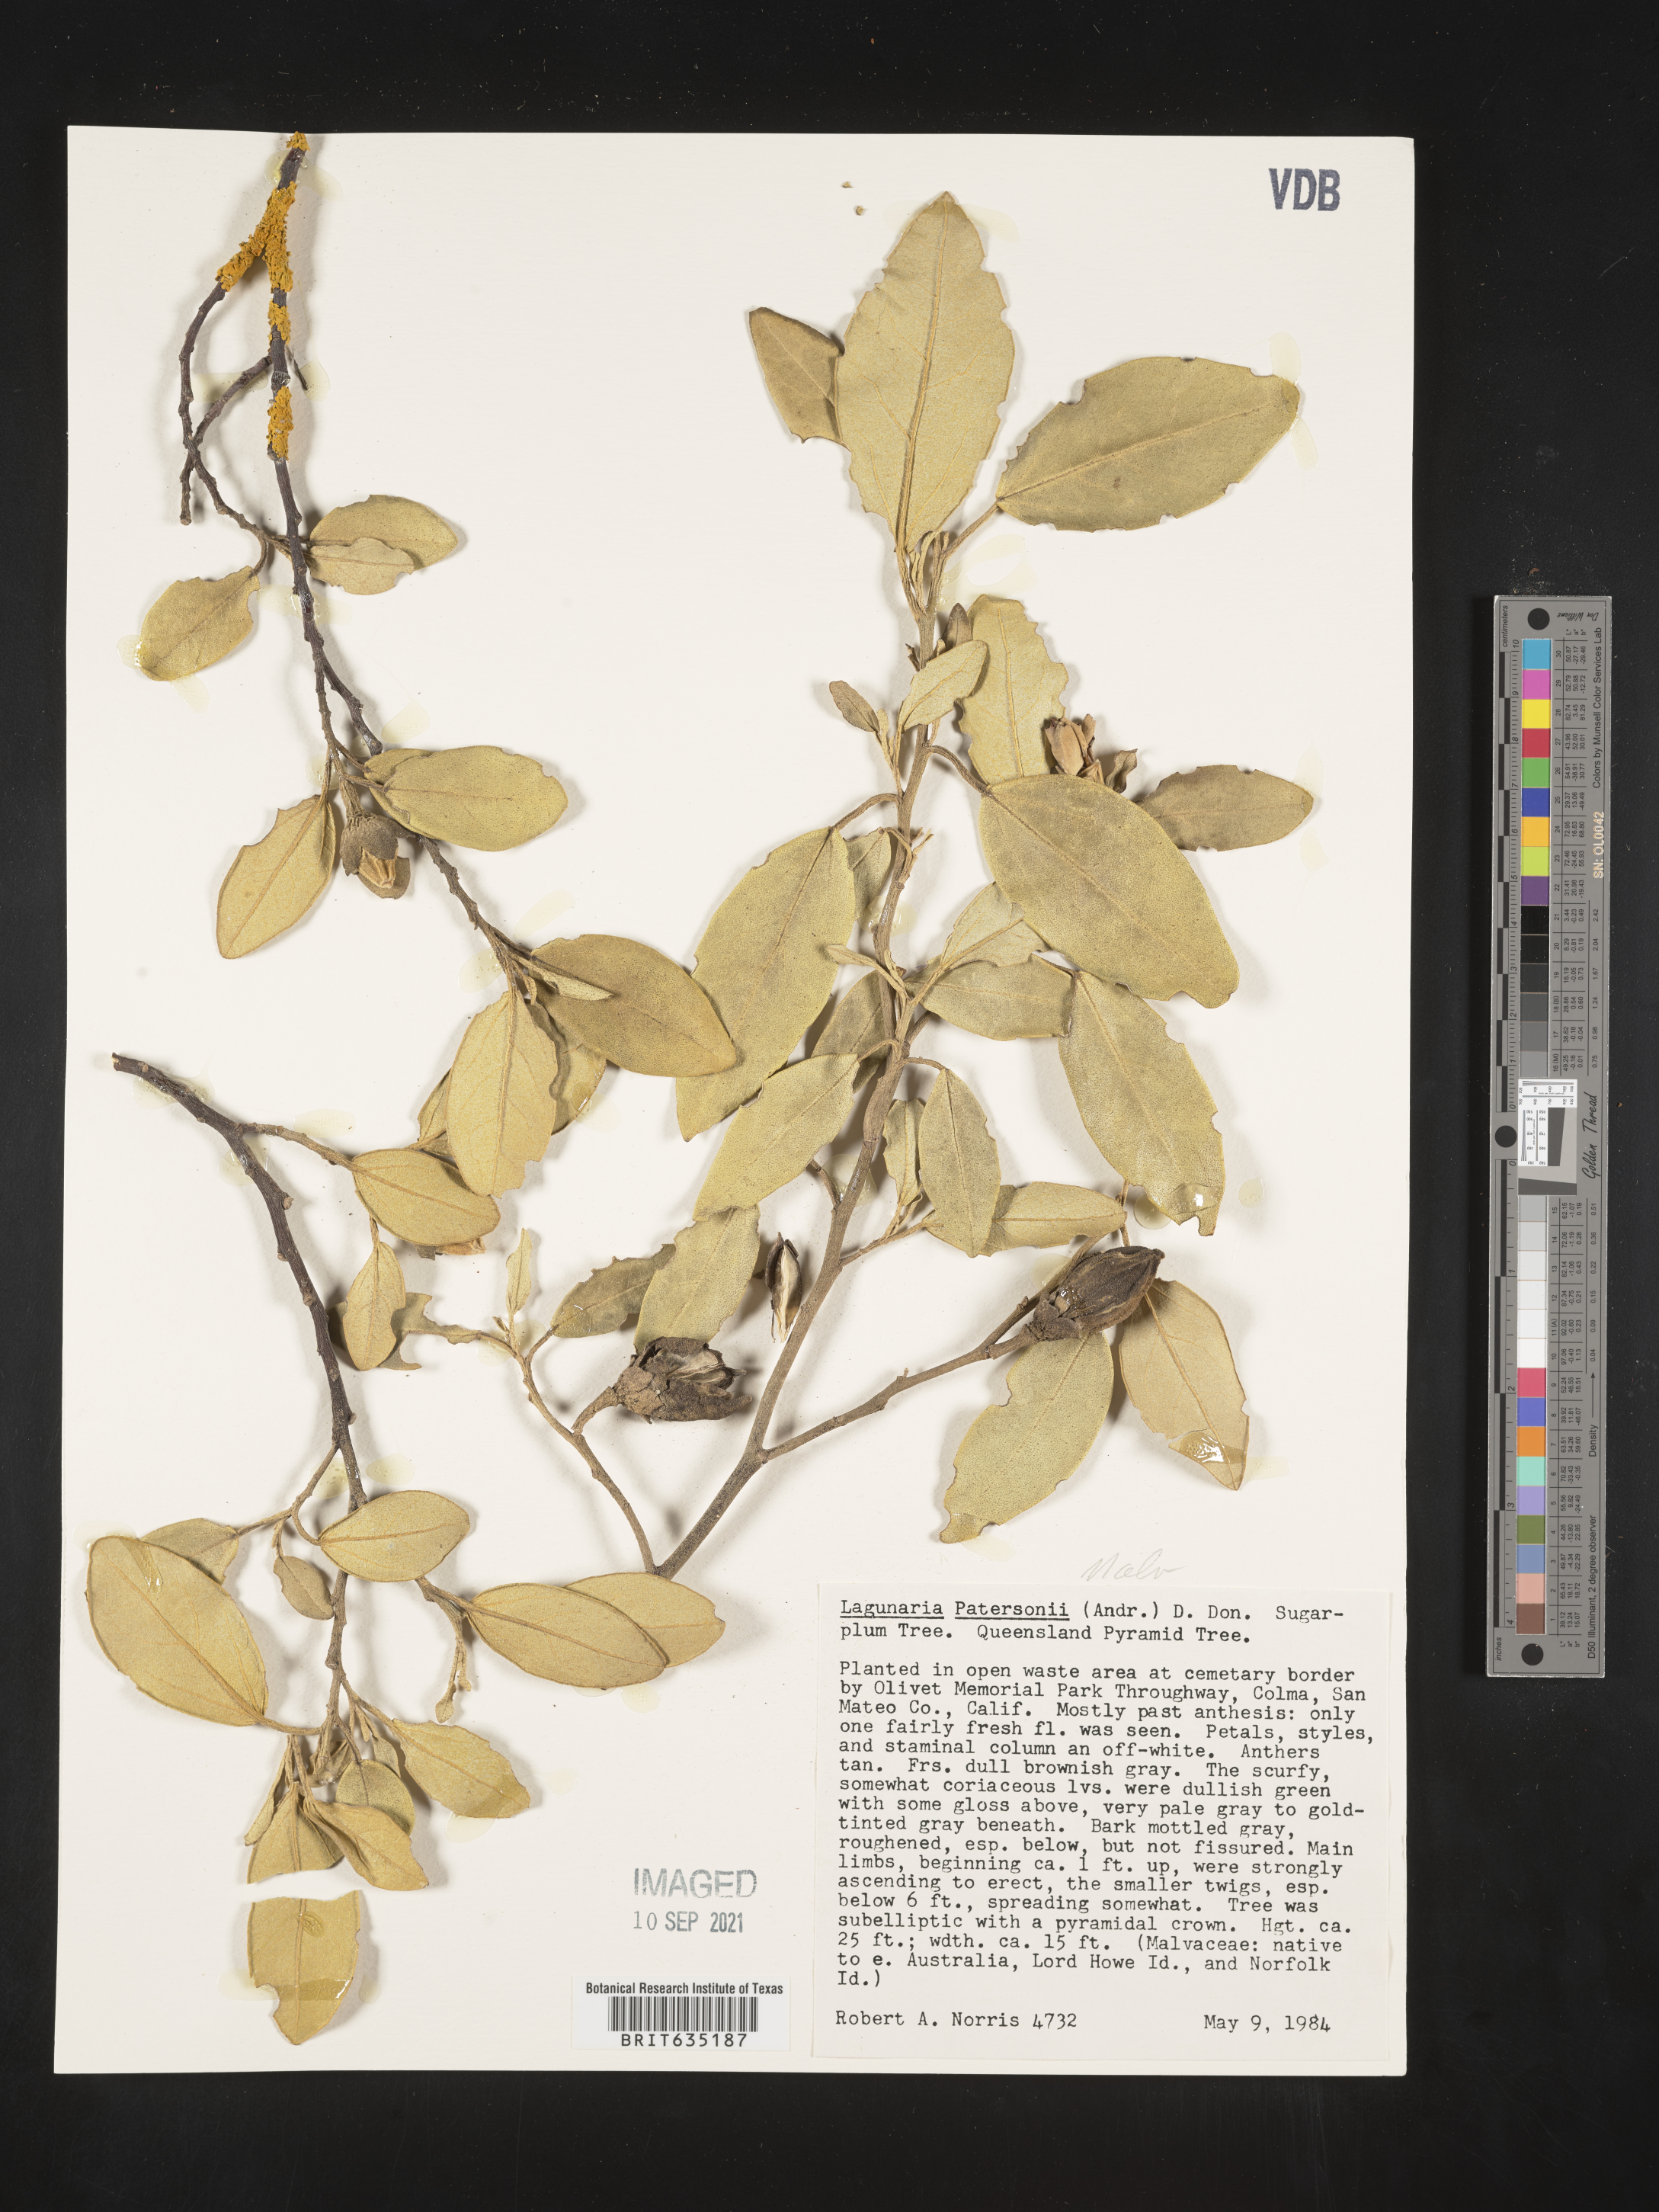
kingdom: Plantae
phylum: Tracheophyta
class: Magnoliopsida
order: Malvales
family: Malvaceae
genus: Lagunaria
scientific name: Lagunaria
